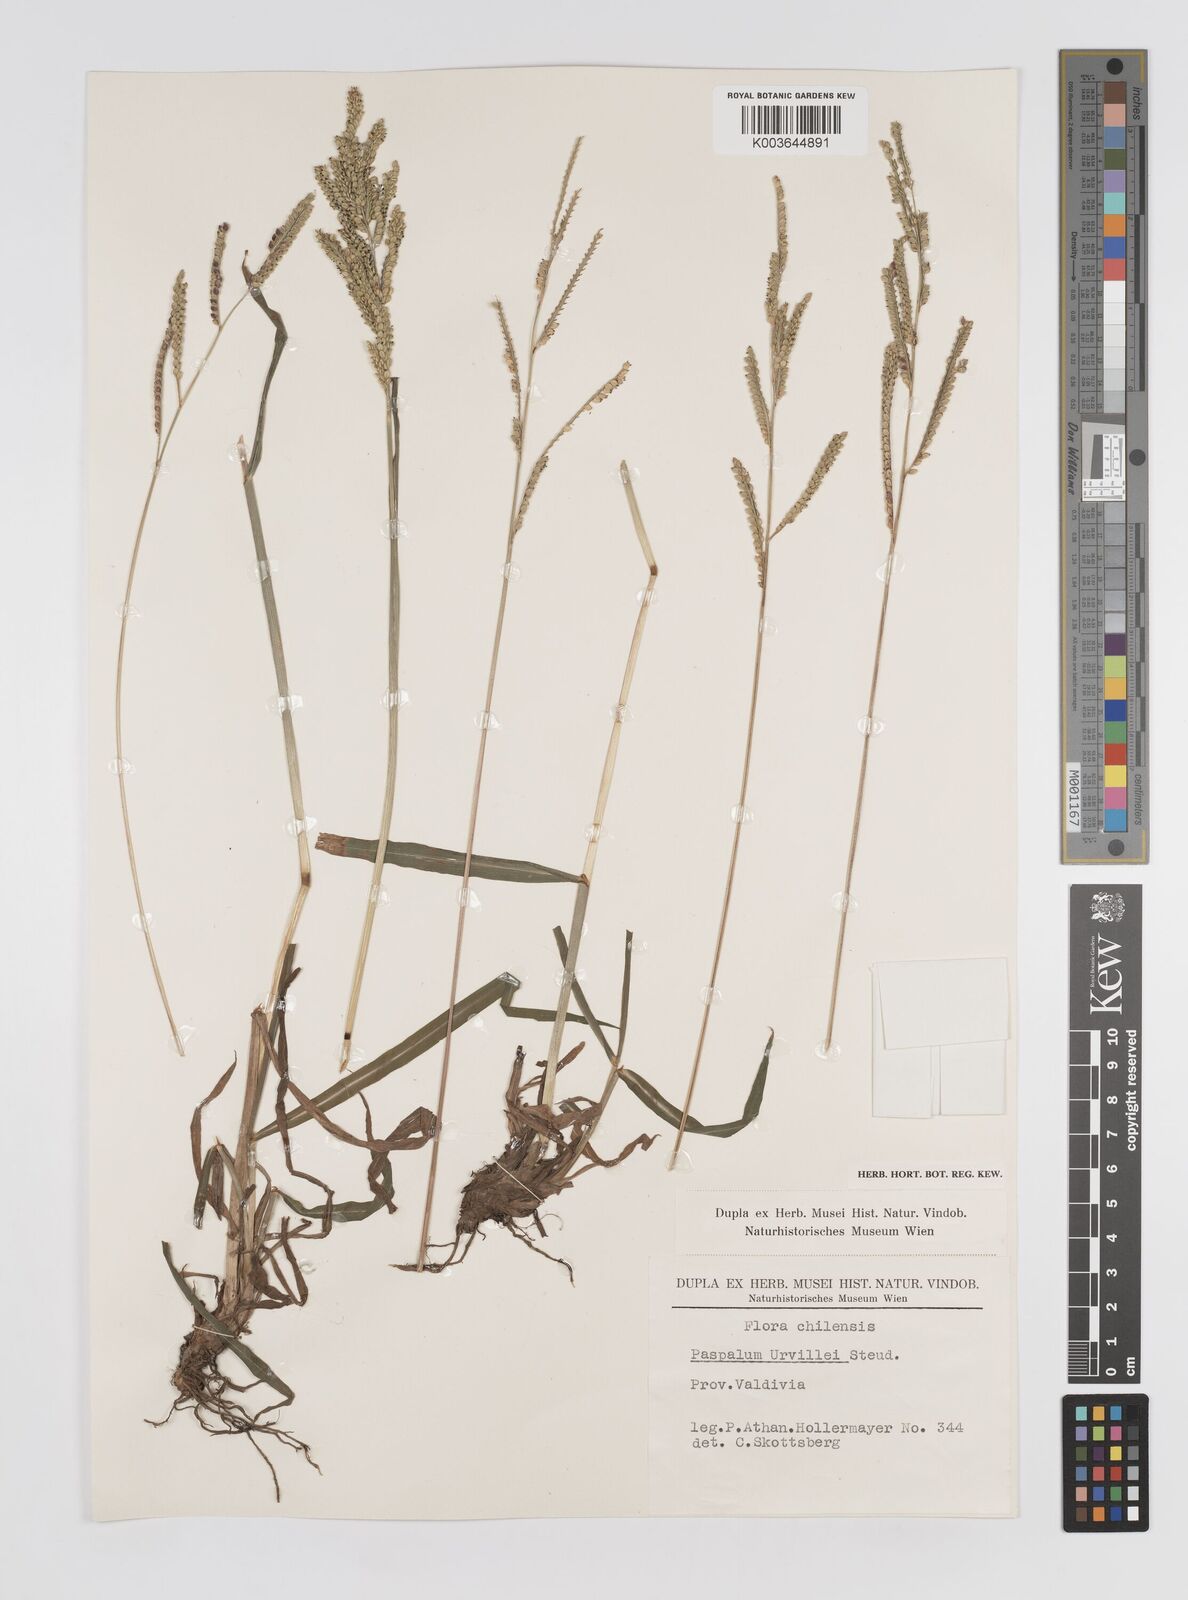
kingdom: Plantae
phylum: Tracheophyta
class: Liliopsida
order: Poales
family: Poaceae
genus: Paspalum
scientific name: Paspalum urvillei
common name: Vasey's grass
